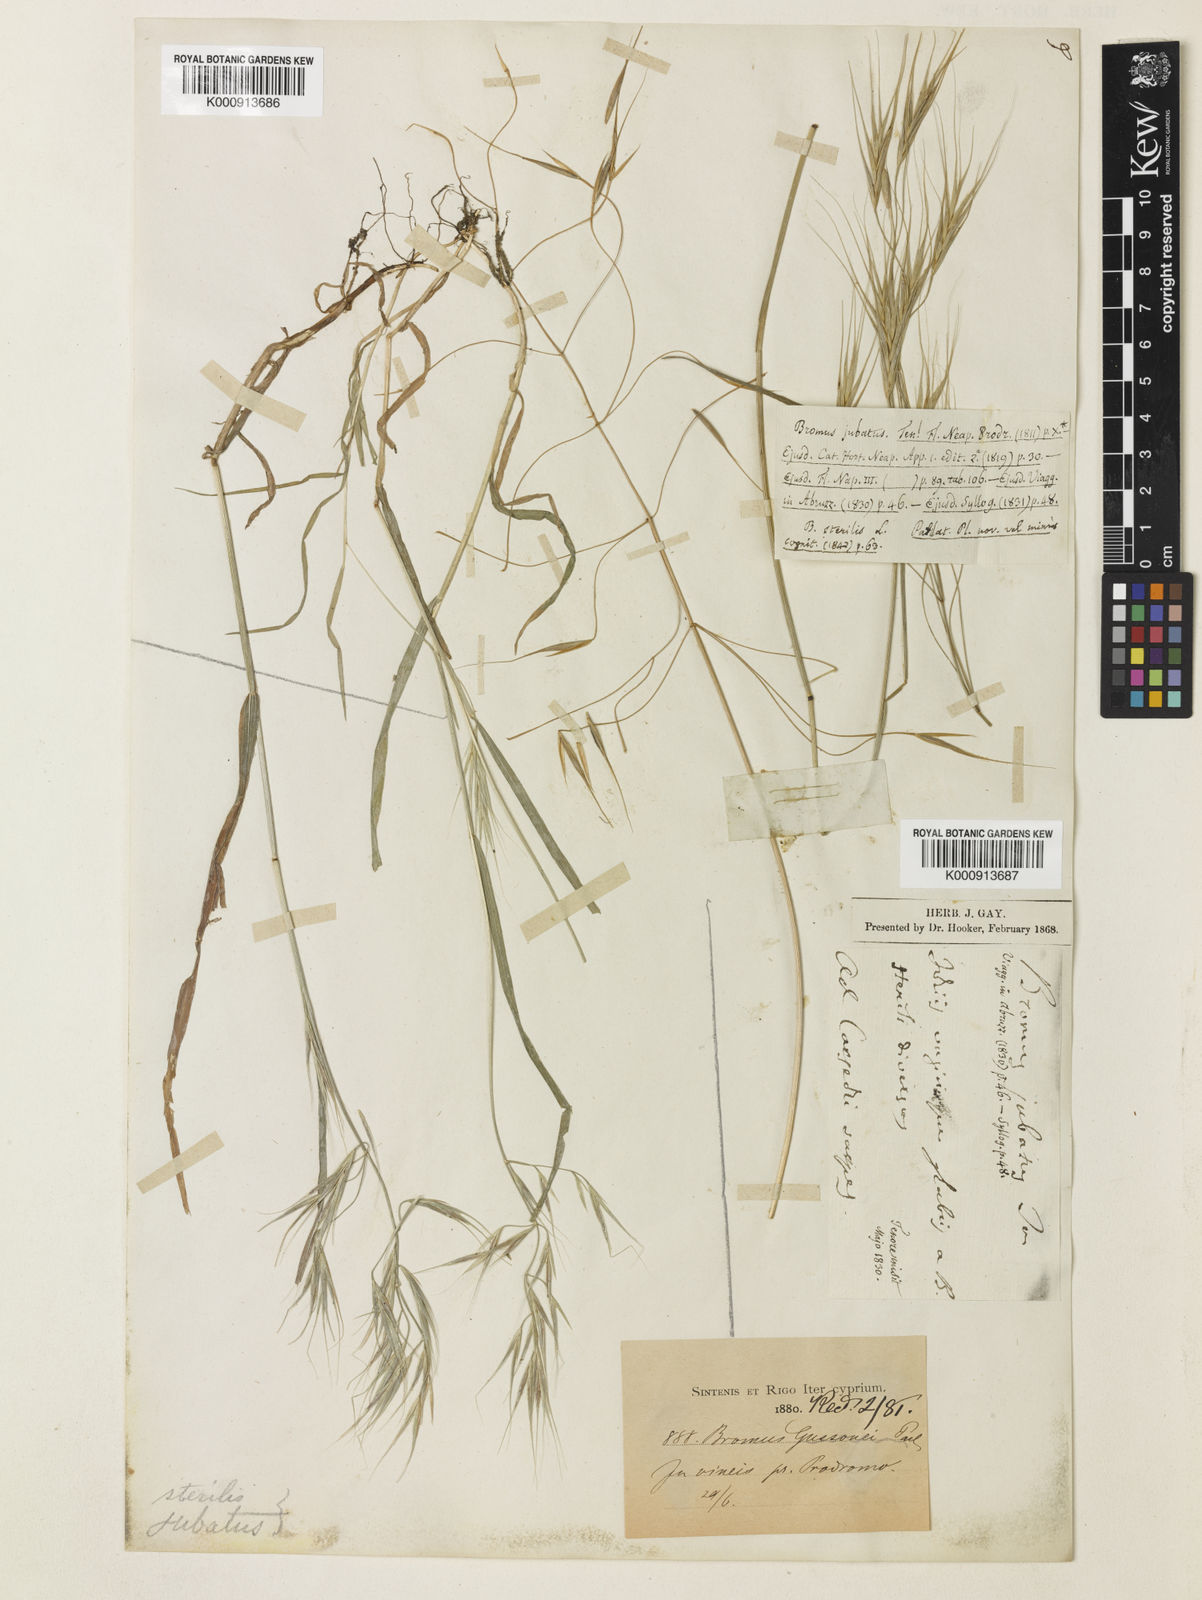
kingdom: Plantae
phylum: Tracheophyta
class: Liliopsida
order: Poales
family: Poaceae
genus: Bromus
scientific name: Bromus sterilis
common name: Poverty brome
